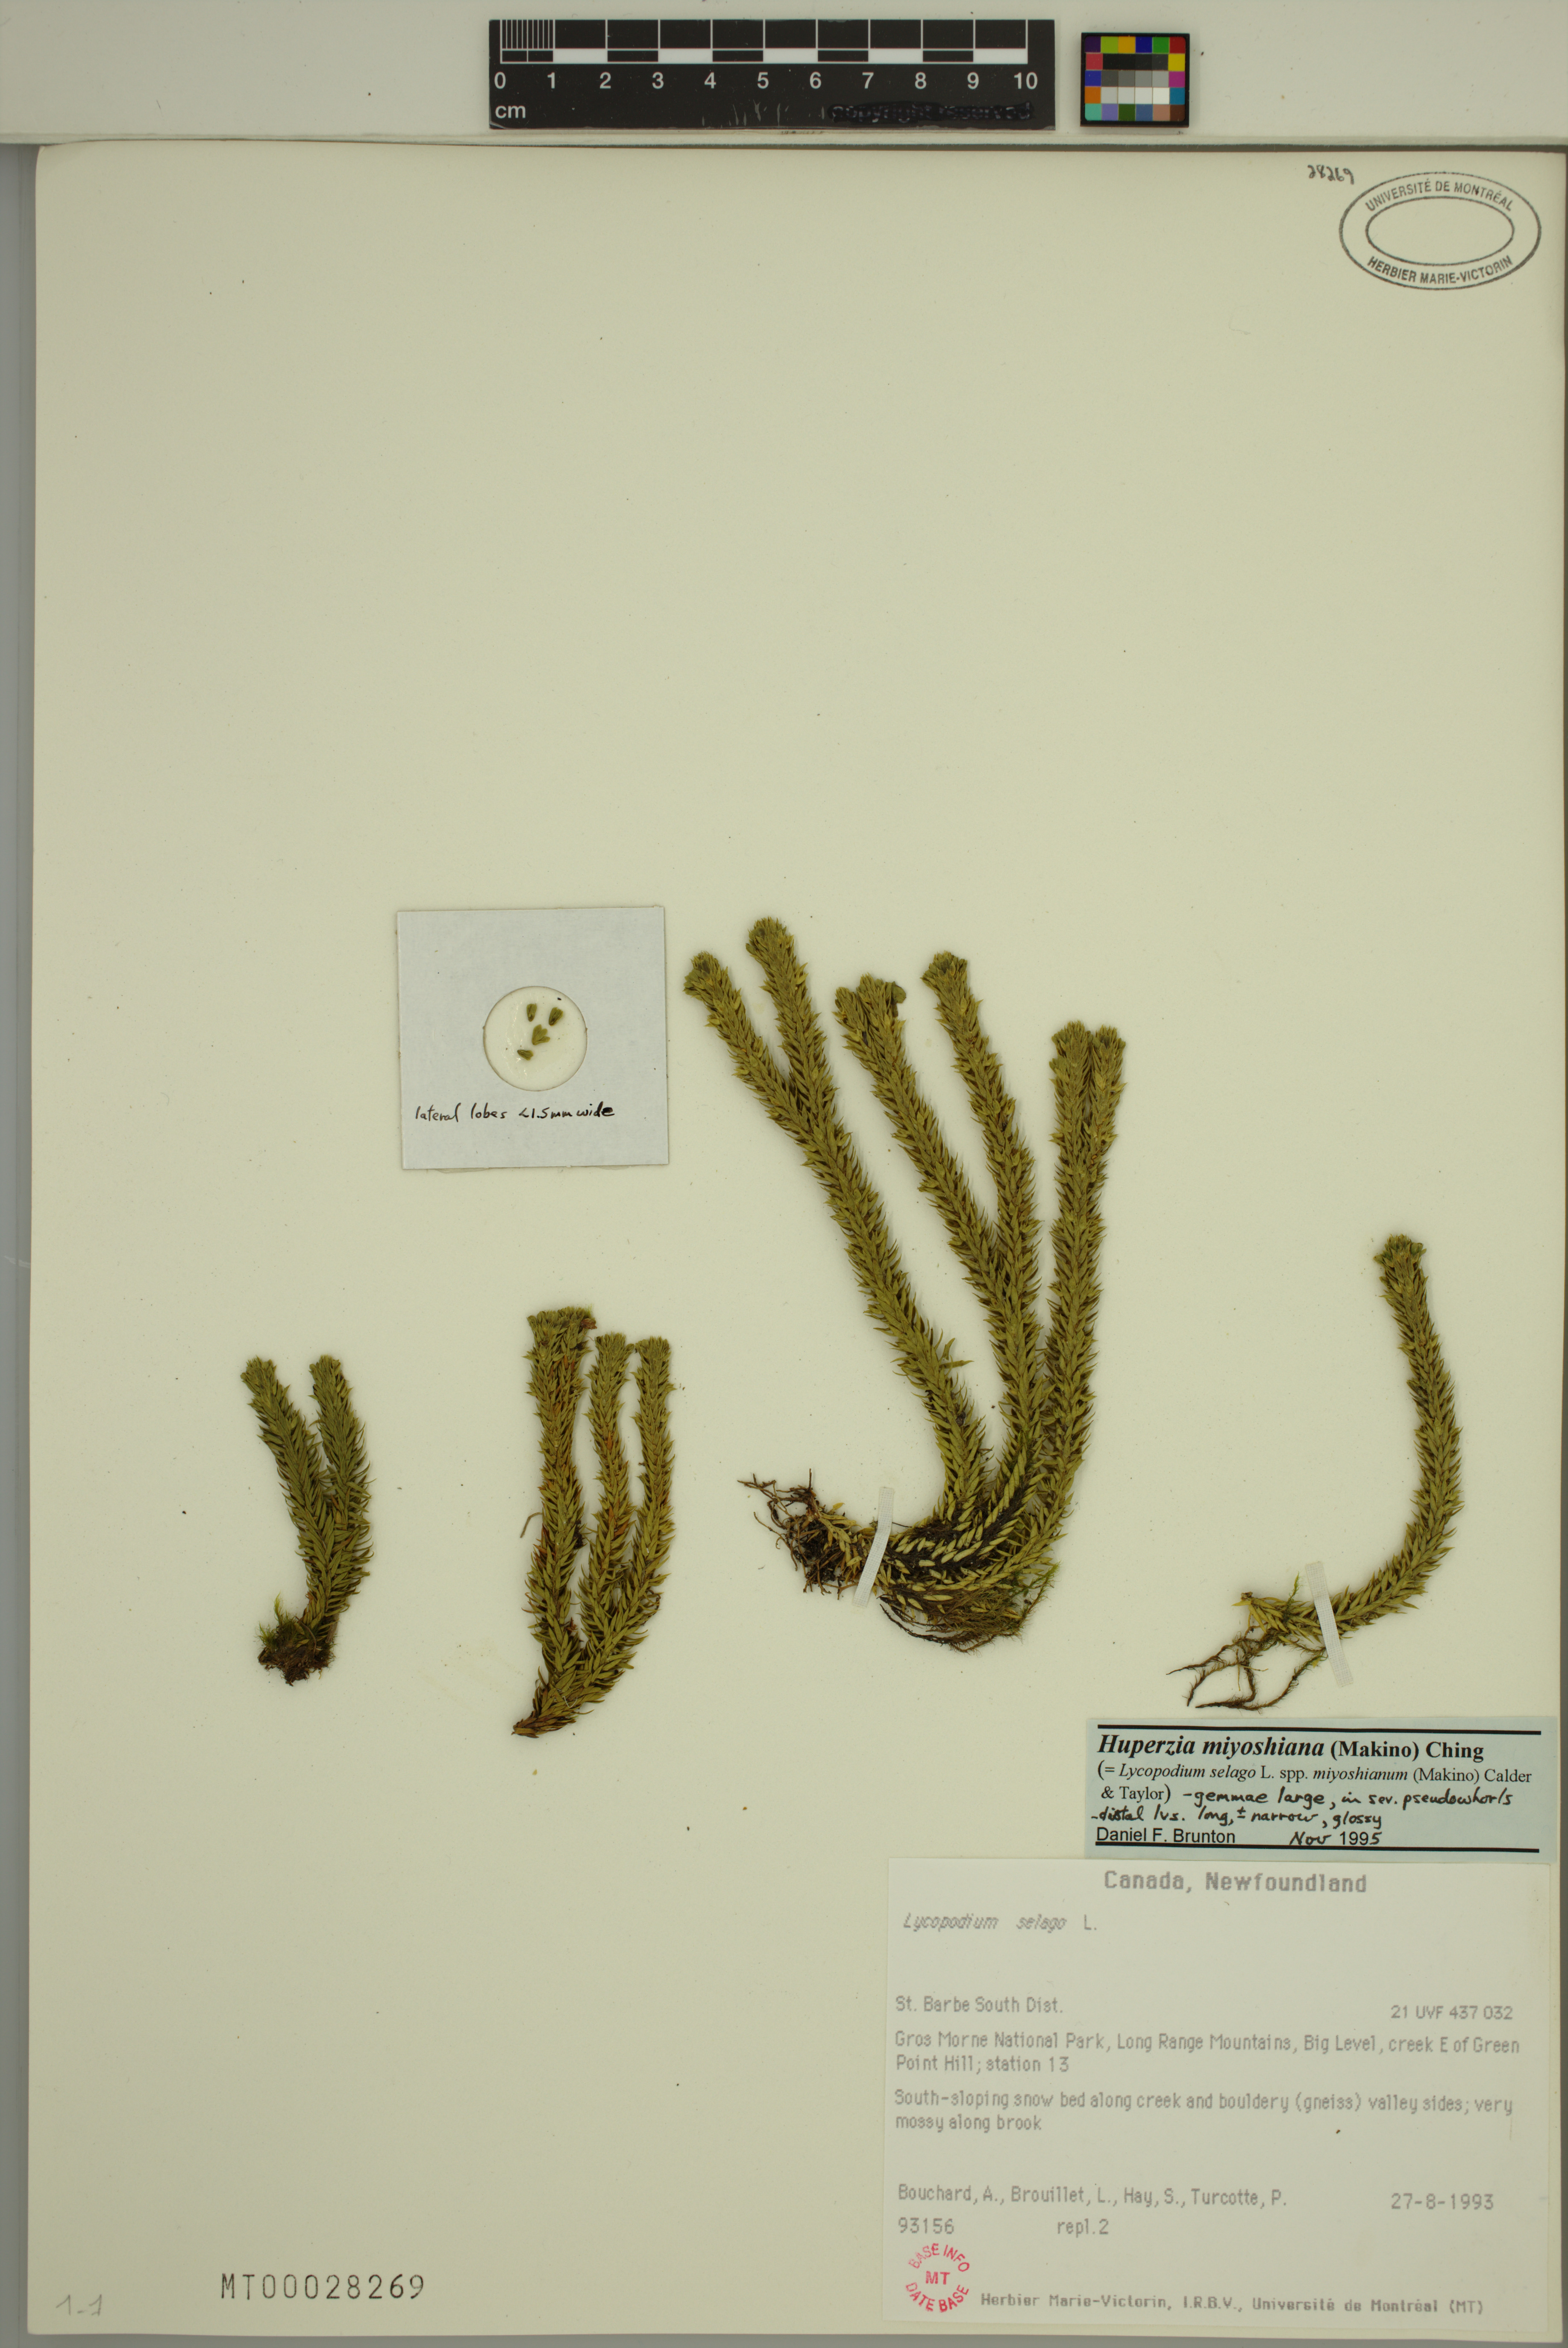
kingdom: Plantae
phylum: Tracheophyta
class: Lycopodiopsida
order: Lycopodiales
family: Lycopodiaceae
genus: Huperzia
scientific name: Huperzia miyoshiana
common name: Chinese clubmoss
